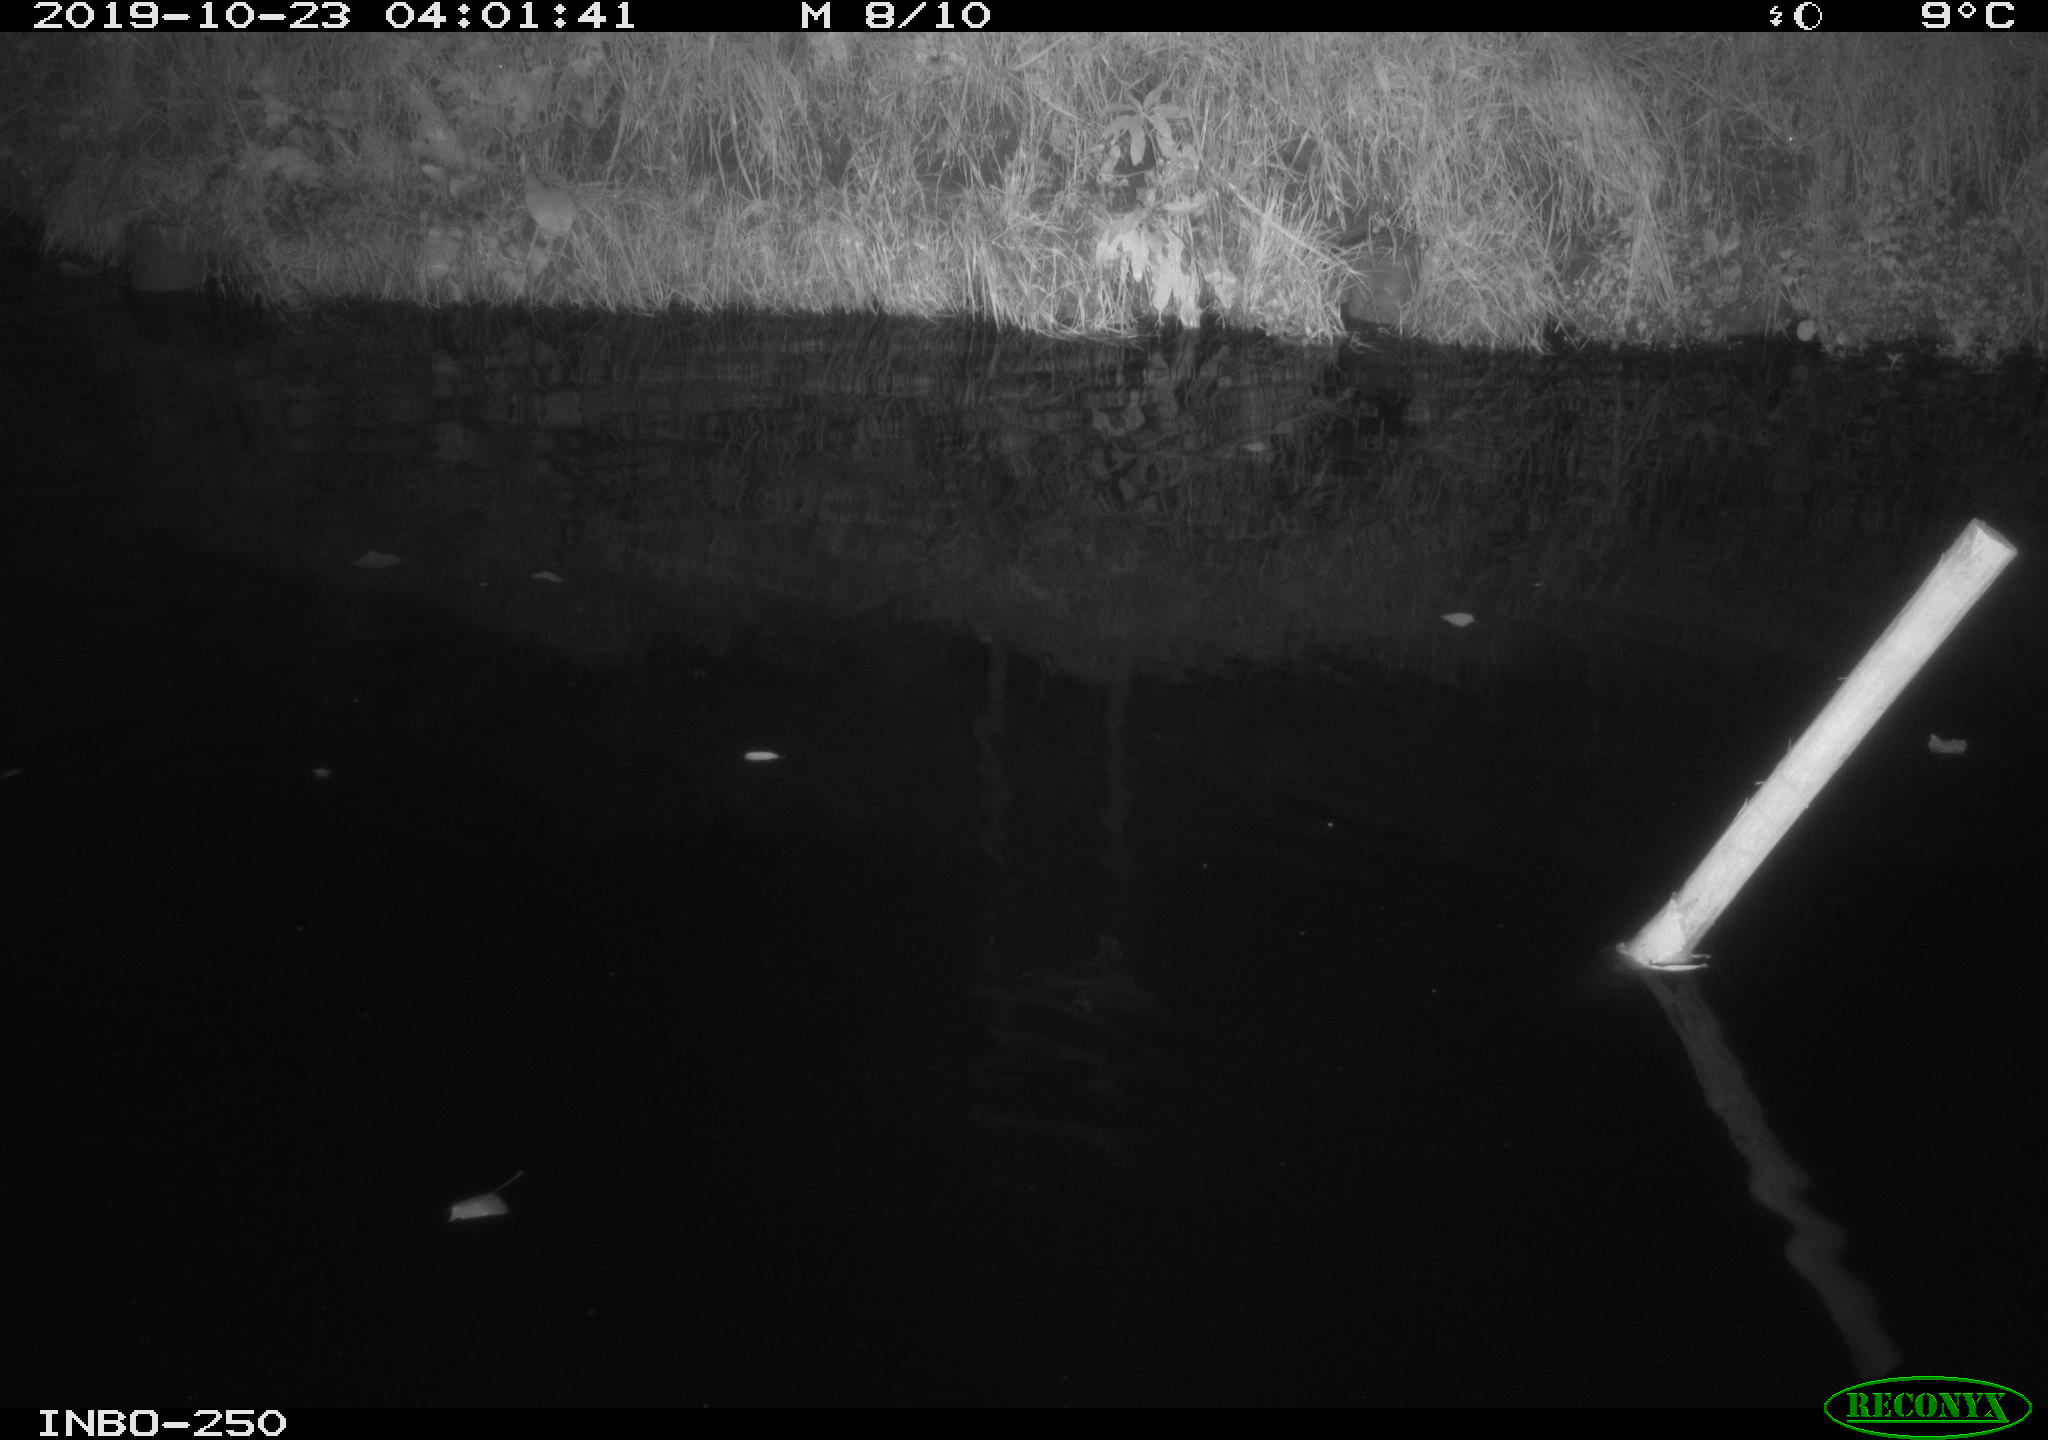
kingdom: Animalia
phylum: Chordata
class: Aves
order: Anseriformes
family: Anatidae
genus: Anas
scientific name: Anas platyrhynchos
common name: Mallard
